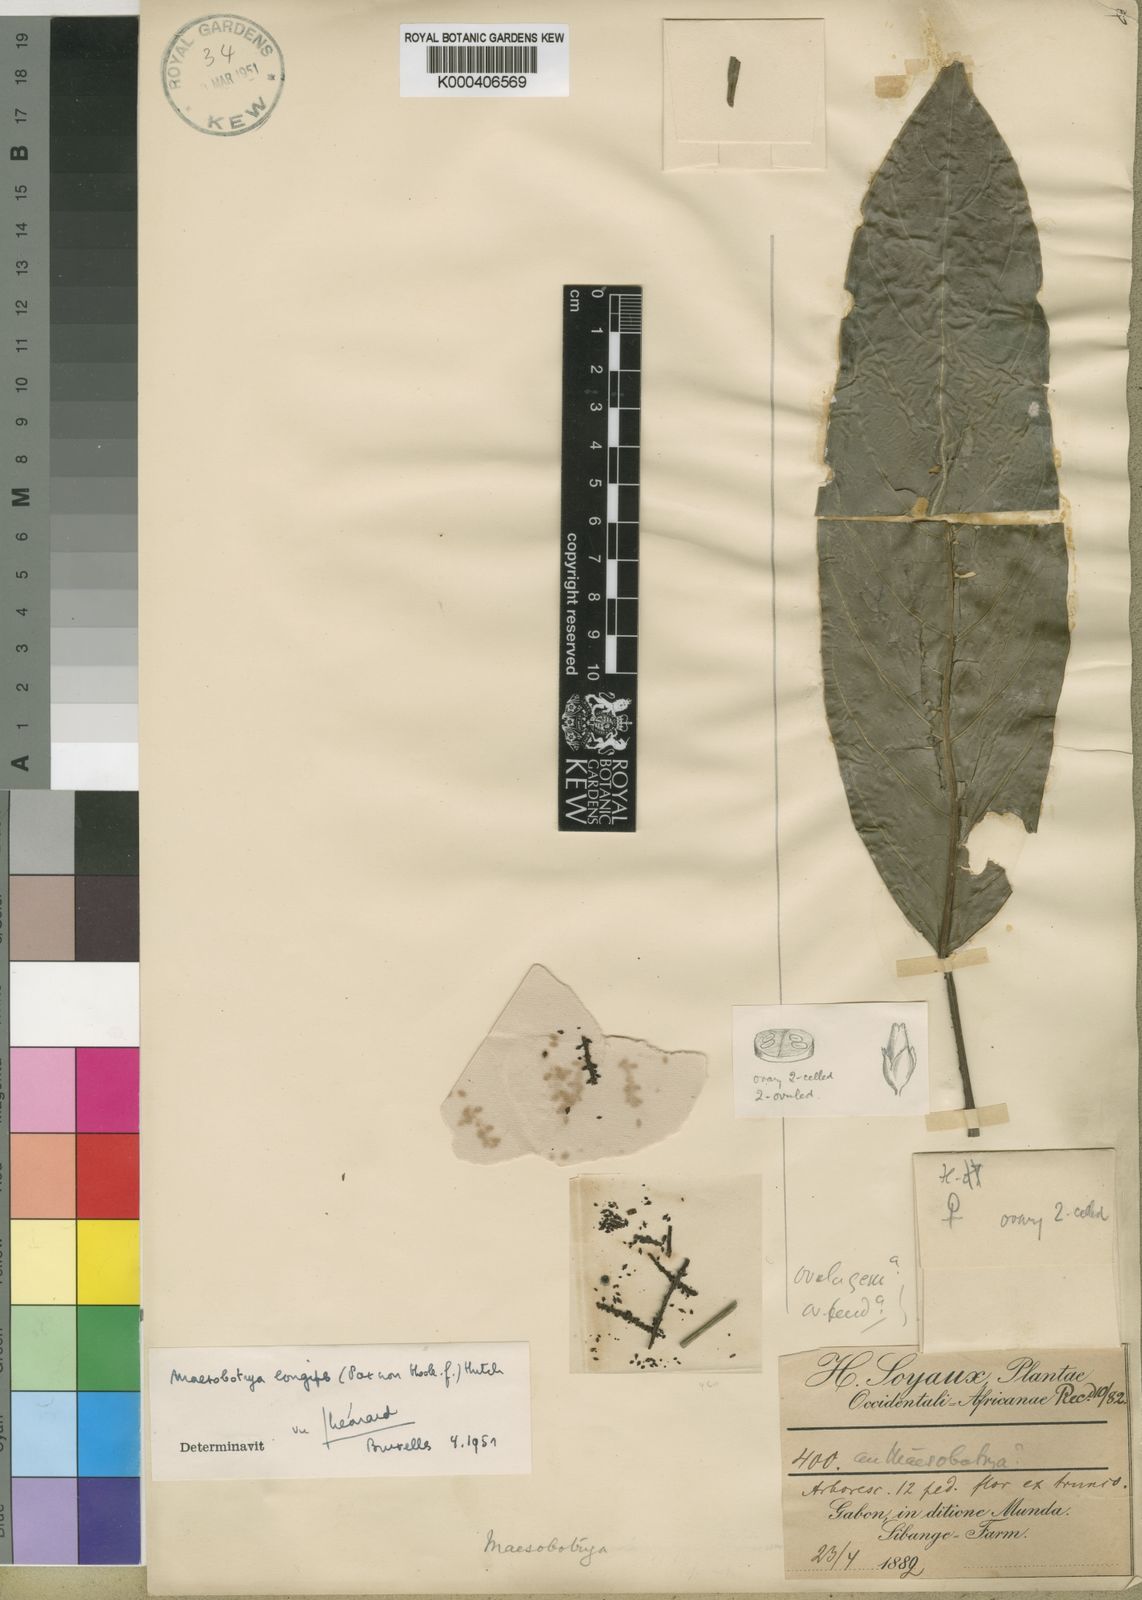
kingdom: Plantae
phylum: Tracheophyta
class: Magnoliopsida
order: Malpighiales
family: Phyllanthaceae
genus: Maesobotrya
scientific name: Maesobotrya longipes
